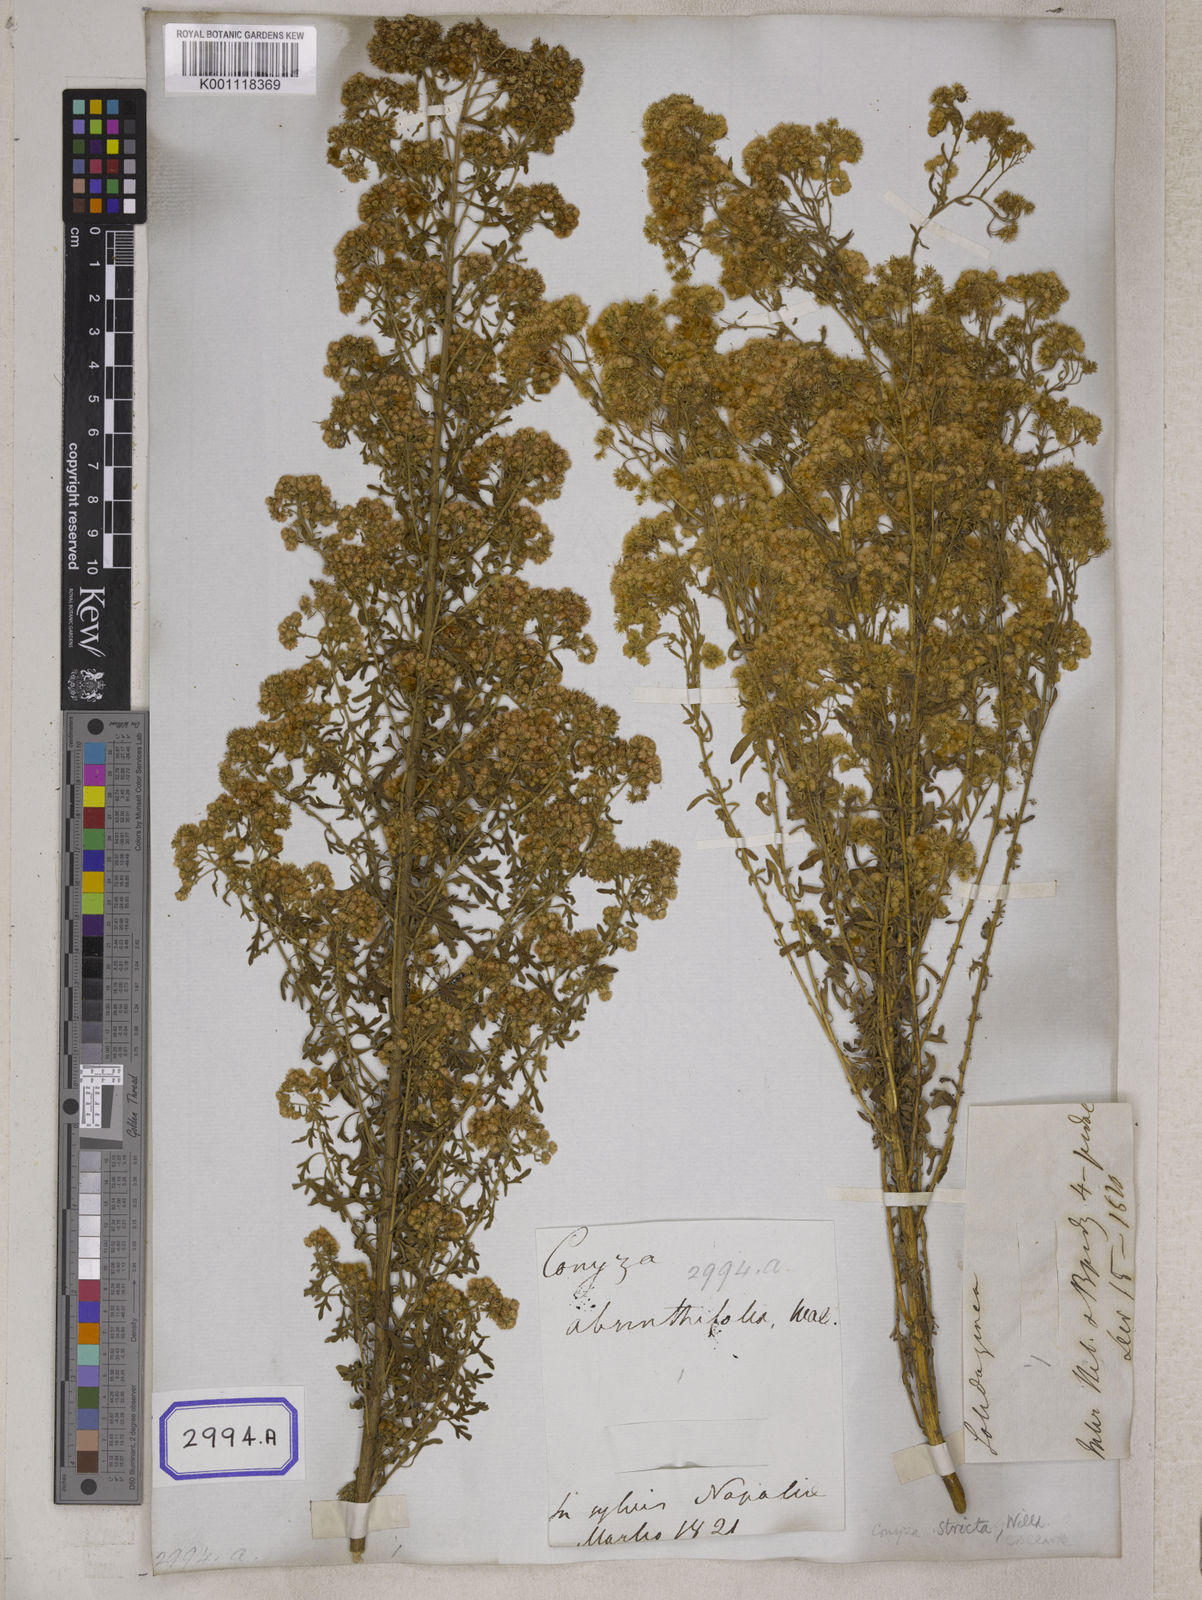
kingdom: Plantae
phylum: Tracheophyta
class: Magnoliopsida
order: Asterales
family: Asteraceae
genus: Nidorella
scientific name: Nidorella triloba
